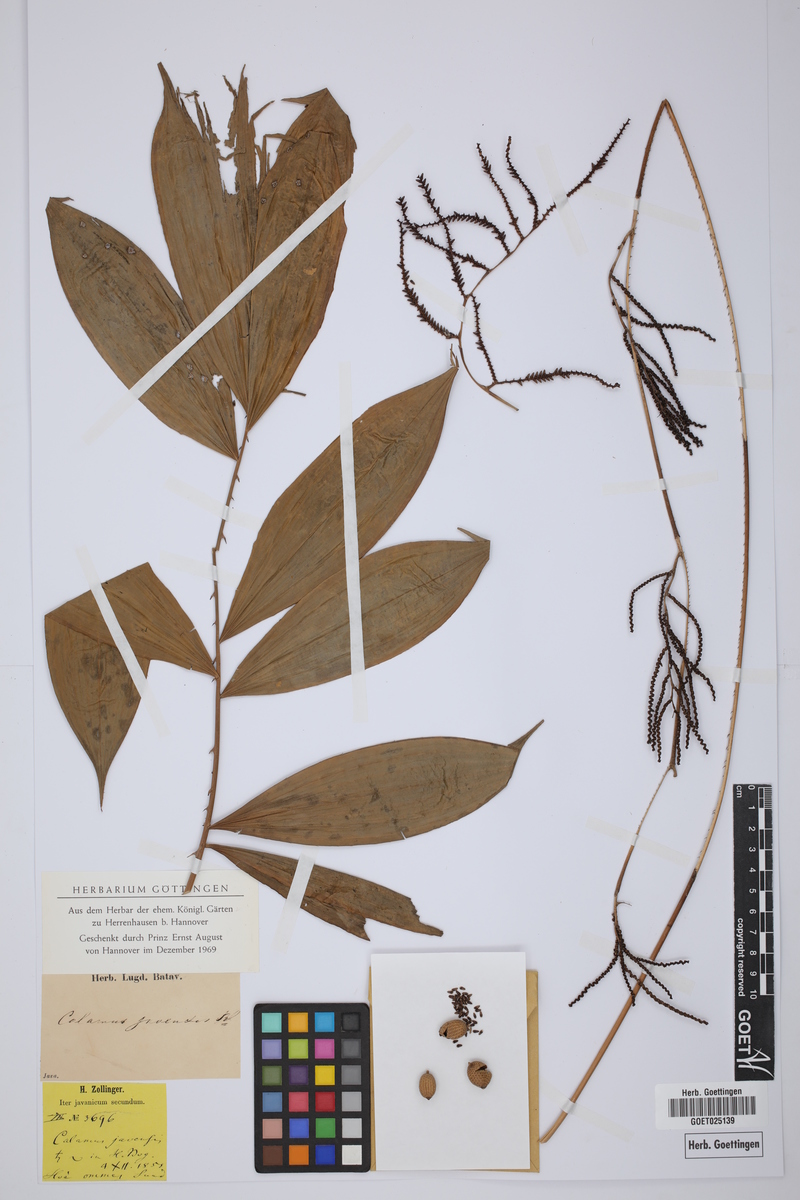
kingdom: Plantae
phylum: Tracheophyta
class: Liliopsida
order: Arecales
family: Arecaceae
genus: Calamus
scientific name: Calamus javensis
